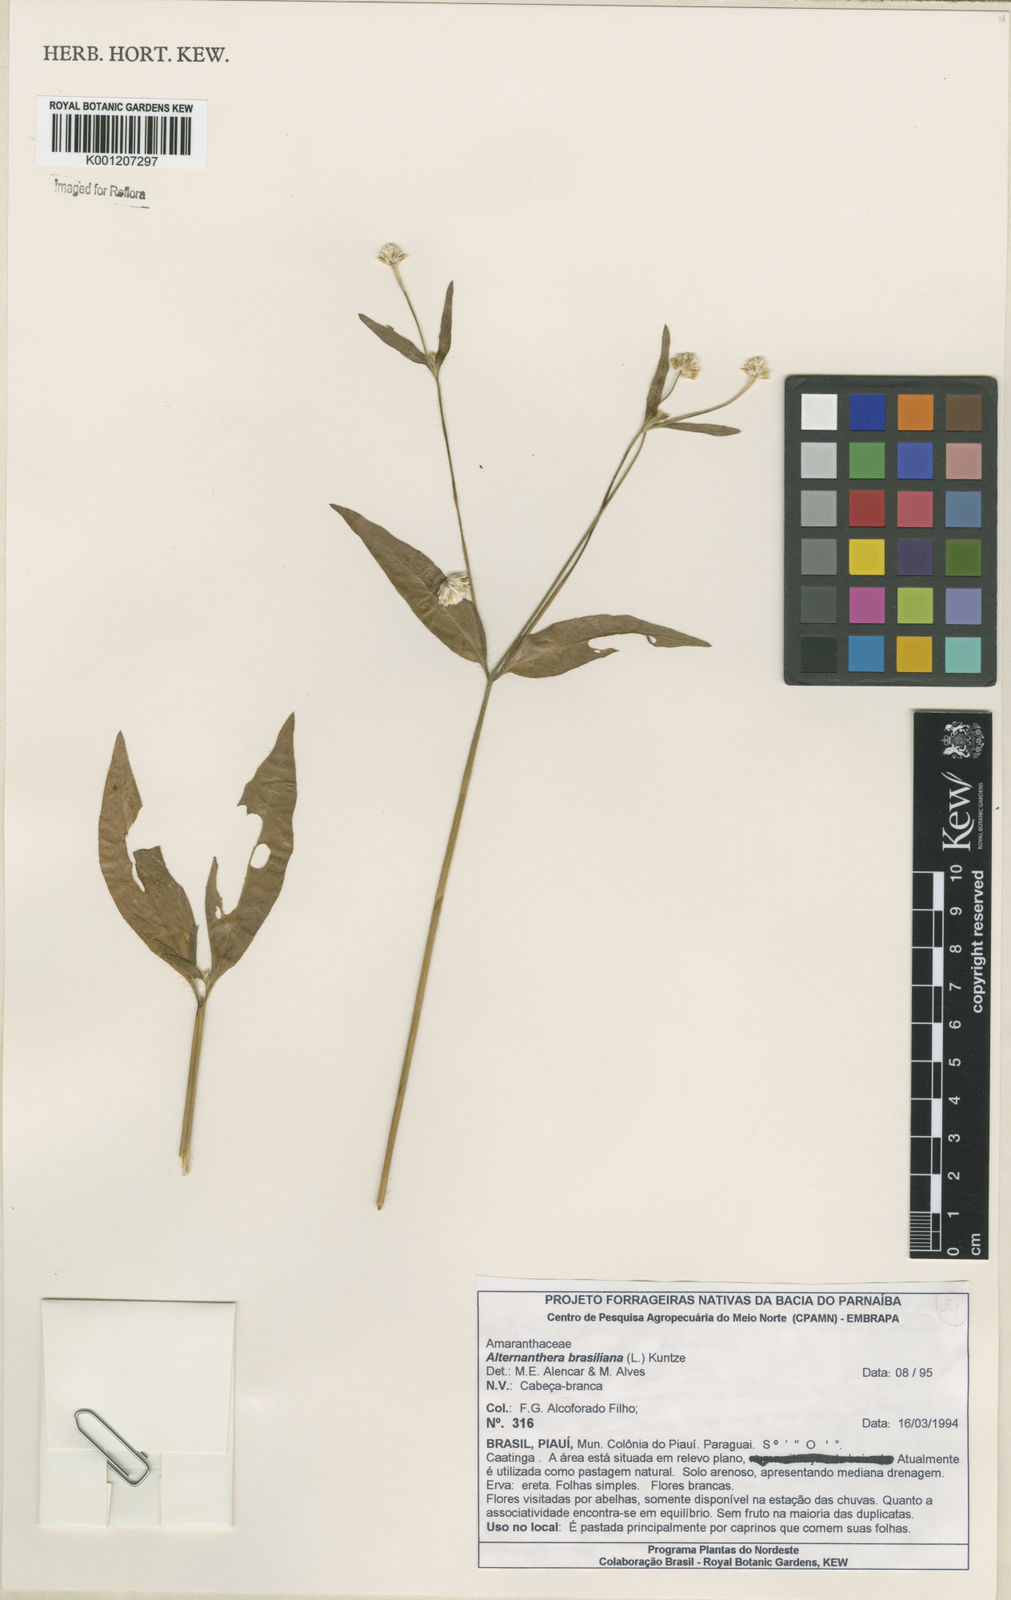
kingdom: Plantae
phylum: Tracheophyta
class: Magnoliopsida
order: Caryophyllales
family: Amaranthaceae
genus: Alternanthera
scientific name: Alternanthera brasiliana
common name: Brazilian joyweed
